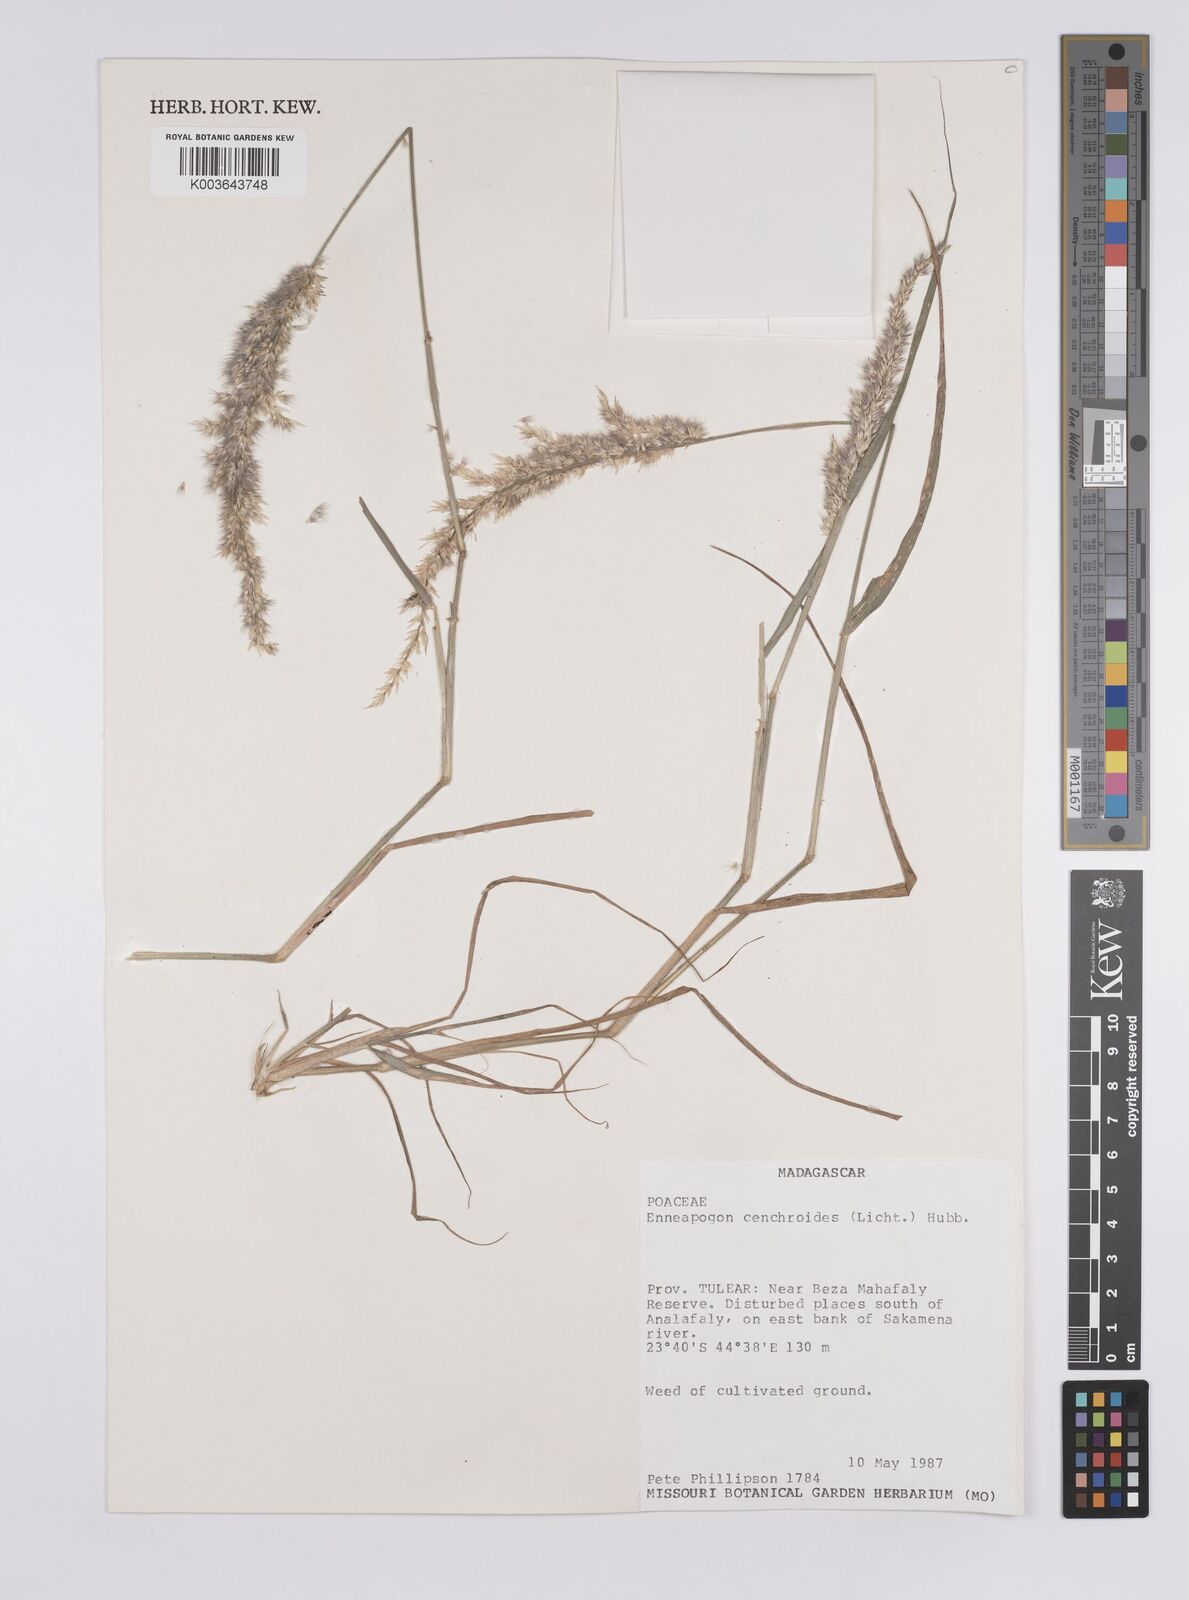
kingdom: Plantae
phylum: Tracheophyta
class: Liliopsida
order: Poales
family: Poaceae
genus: Enneapogon
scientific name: Enneapogon cenchroides
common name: Soft feather pappusgrass
